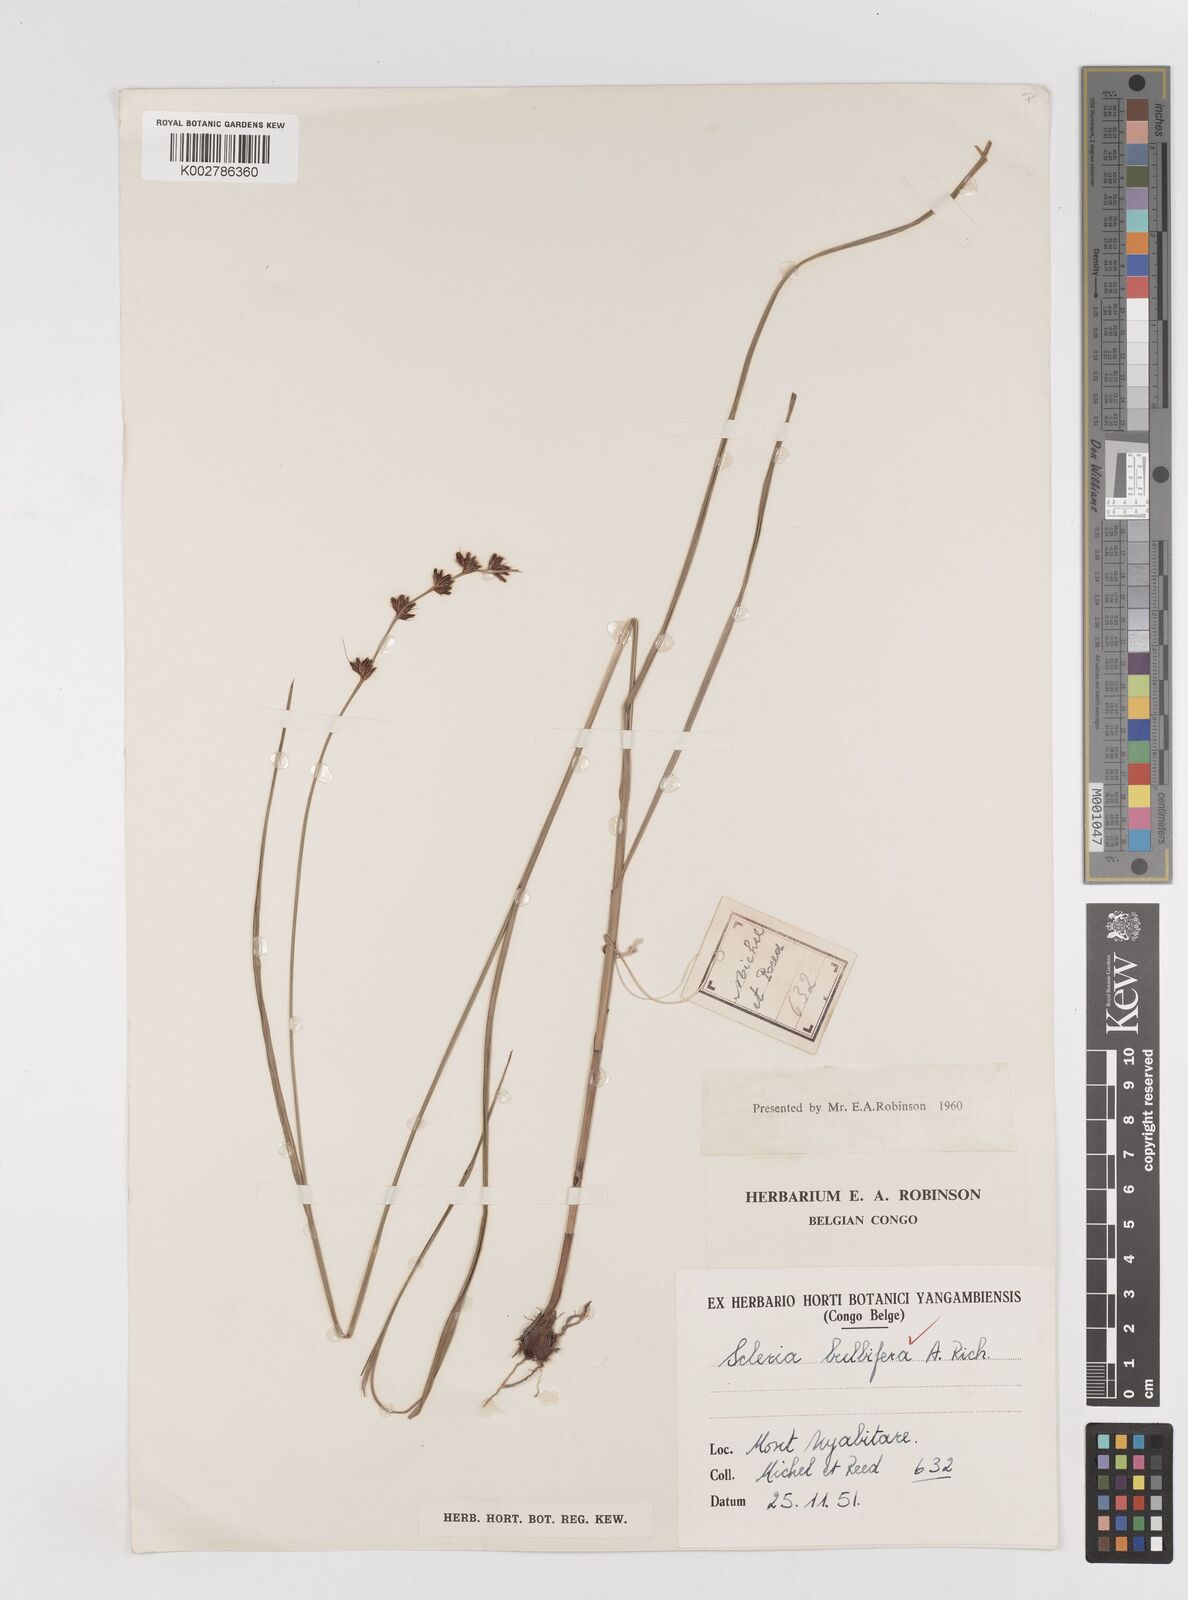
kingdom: Plantae
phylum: Tracheophyta
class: Liliopsida
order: Poales
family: Cyperaceae
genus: Scleria
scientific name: Scleria bulbifera
